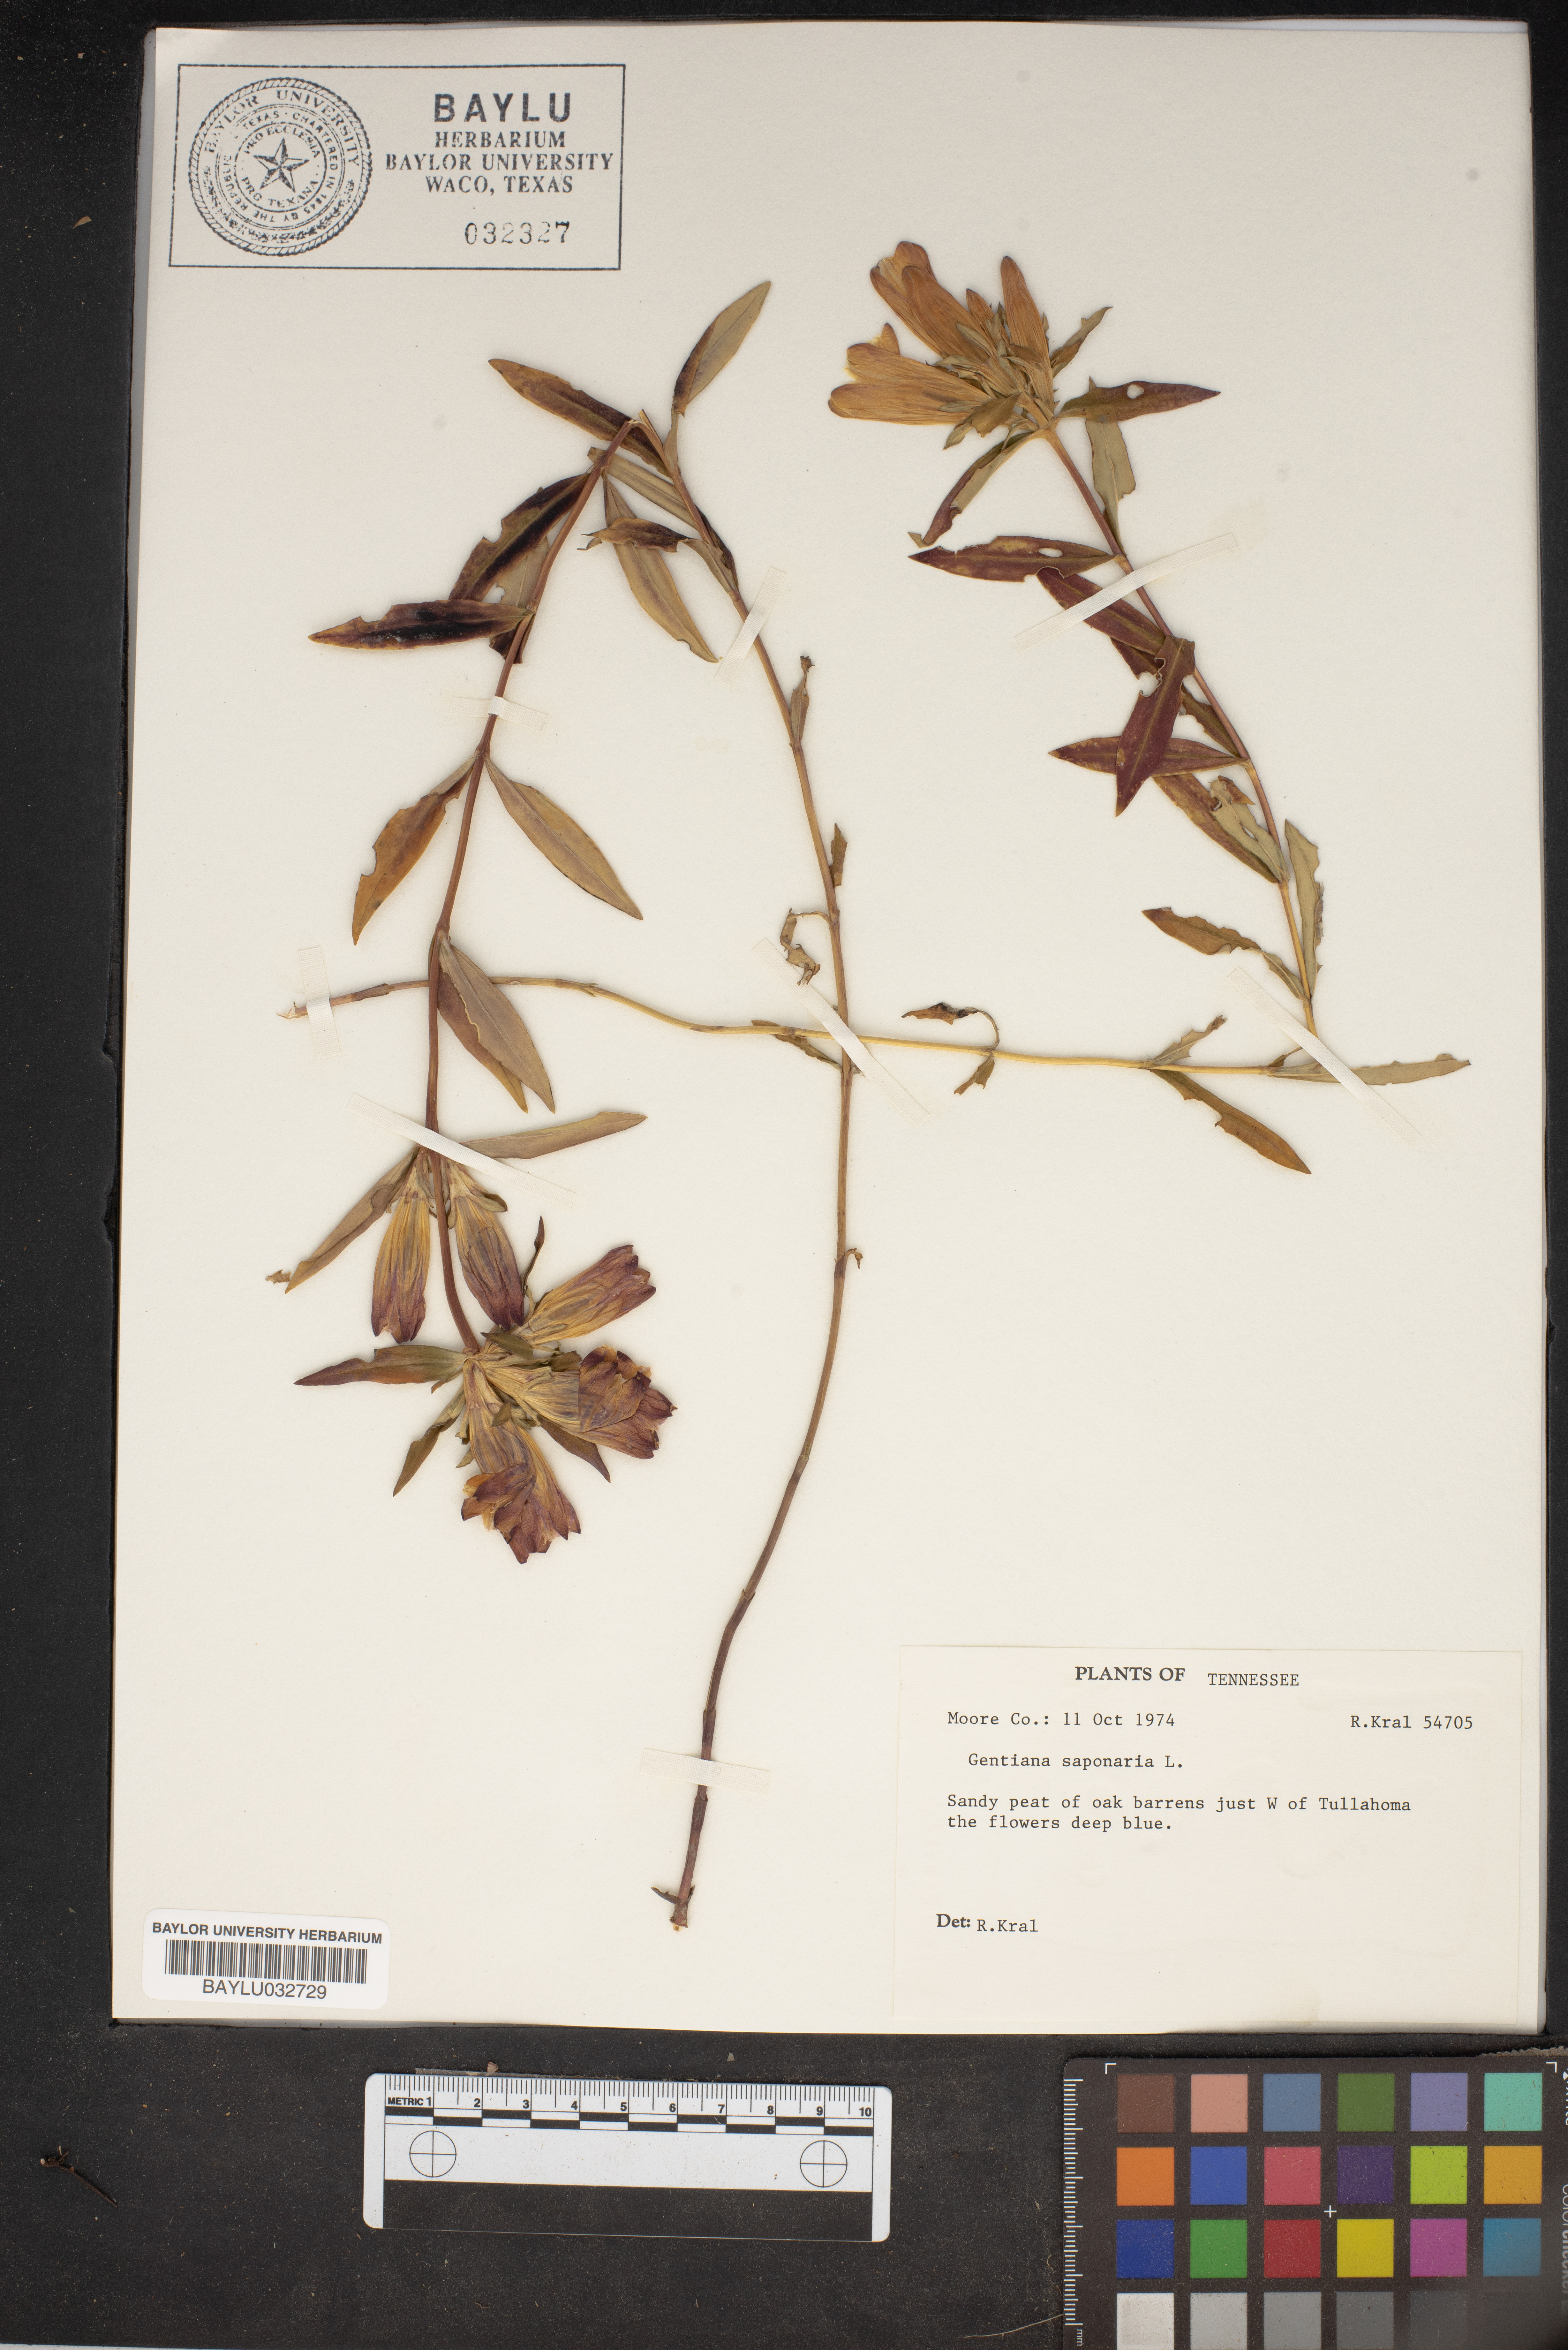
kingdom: Plantae
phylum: Tracheophyta
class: Magnoliopsida
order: Gentianales
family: Gentianaceae
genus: Gentiana
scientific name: Gentiana saponaria
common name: Soapwort gentian
